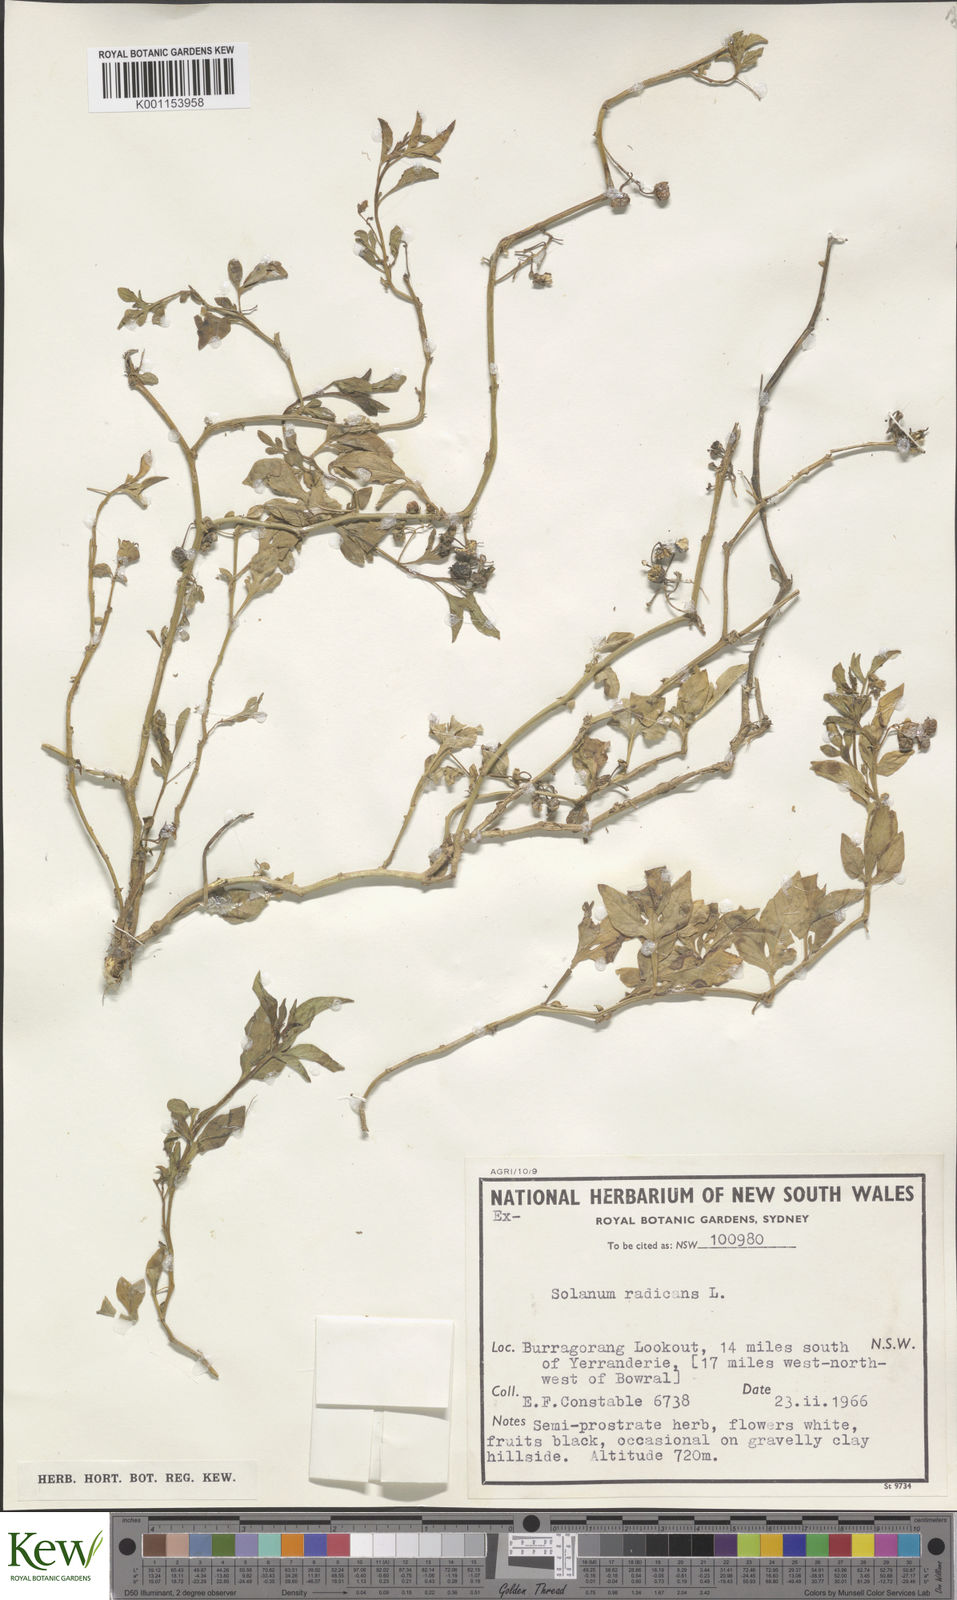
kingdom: Plantae
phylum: Tracheophyta
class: Magnoliopsida
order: Solanales
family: Solanaceae
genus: Solanum
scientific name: Solanum palitans
